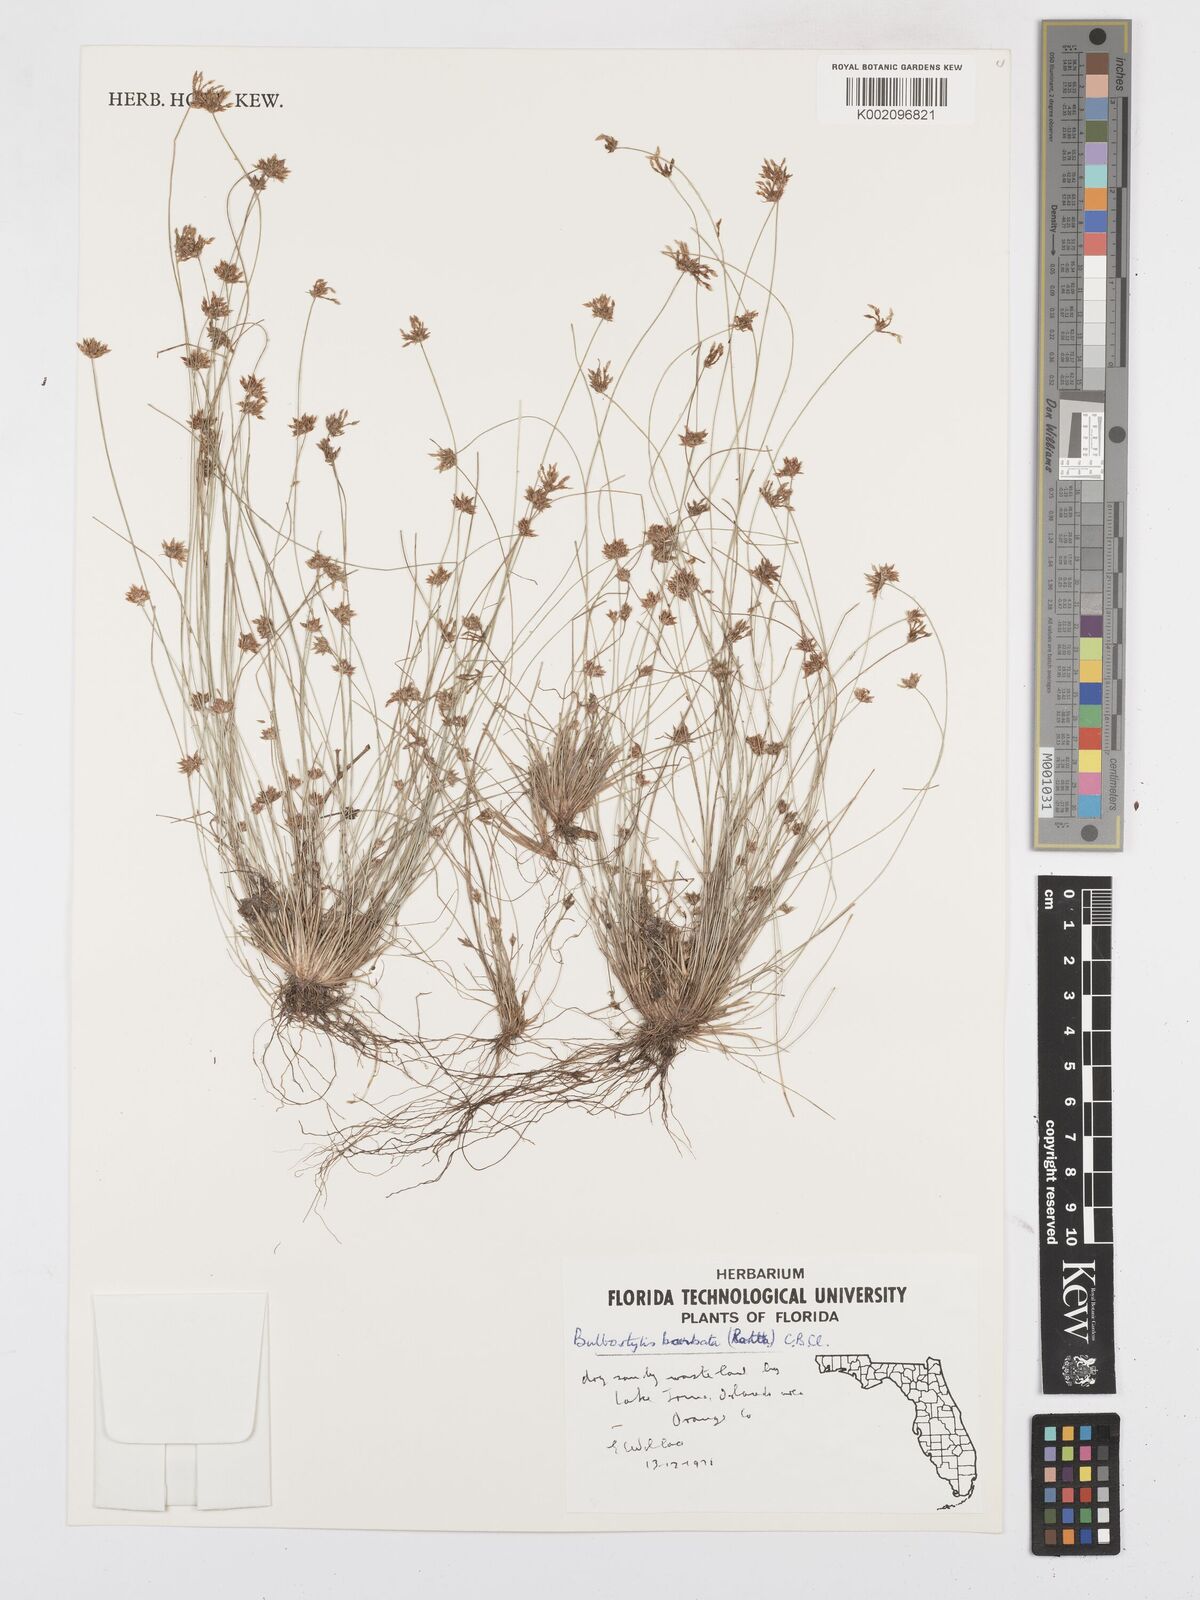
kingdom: Plantae
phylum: Tracheophyta
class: Liliopsida
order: Poales
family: Cyperaceae
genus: Bulbostylis
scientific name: Bulbostylis barbata
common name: Watergrass
